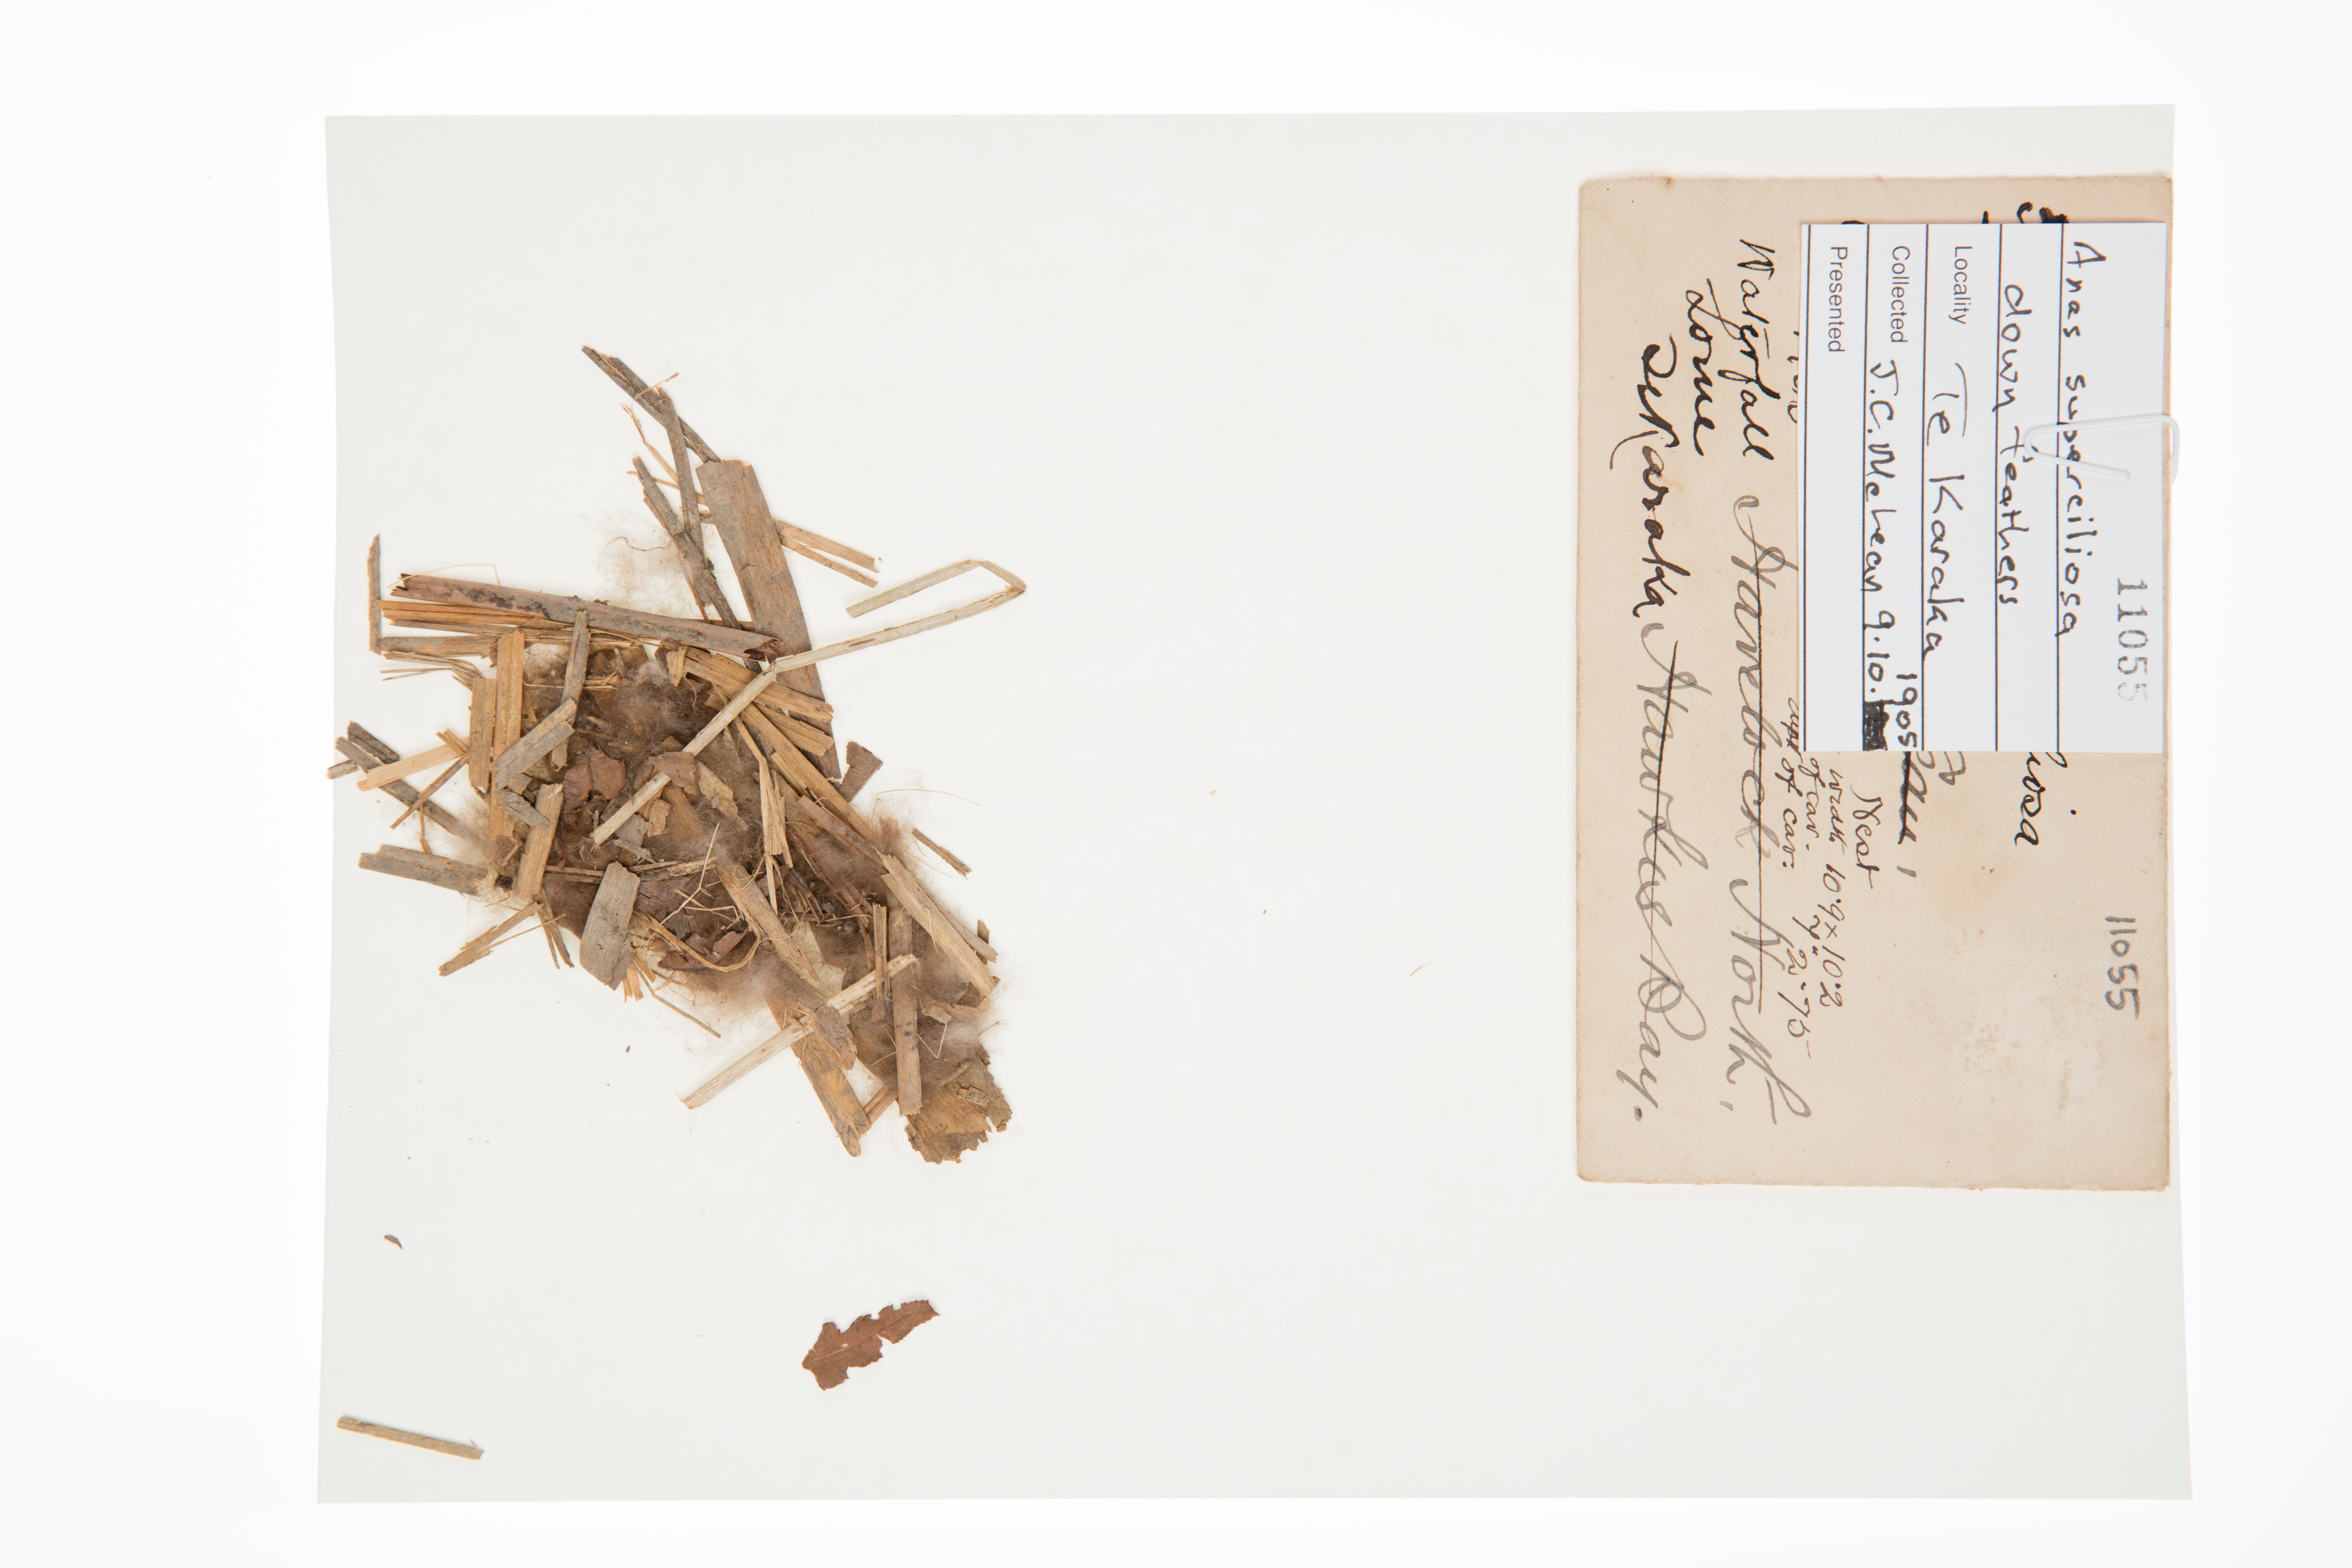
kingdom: Animalia
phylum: Chordata
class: Aves
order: Anseriformes
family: Anatidae
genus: Anas
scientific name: Anas superciliosa
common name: Pacific black duck
